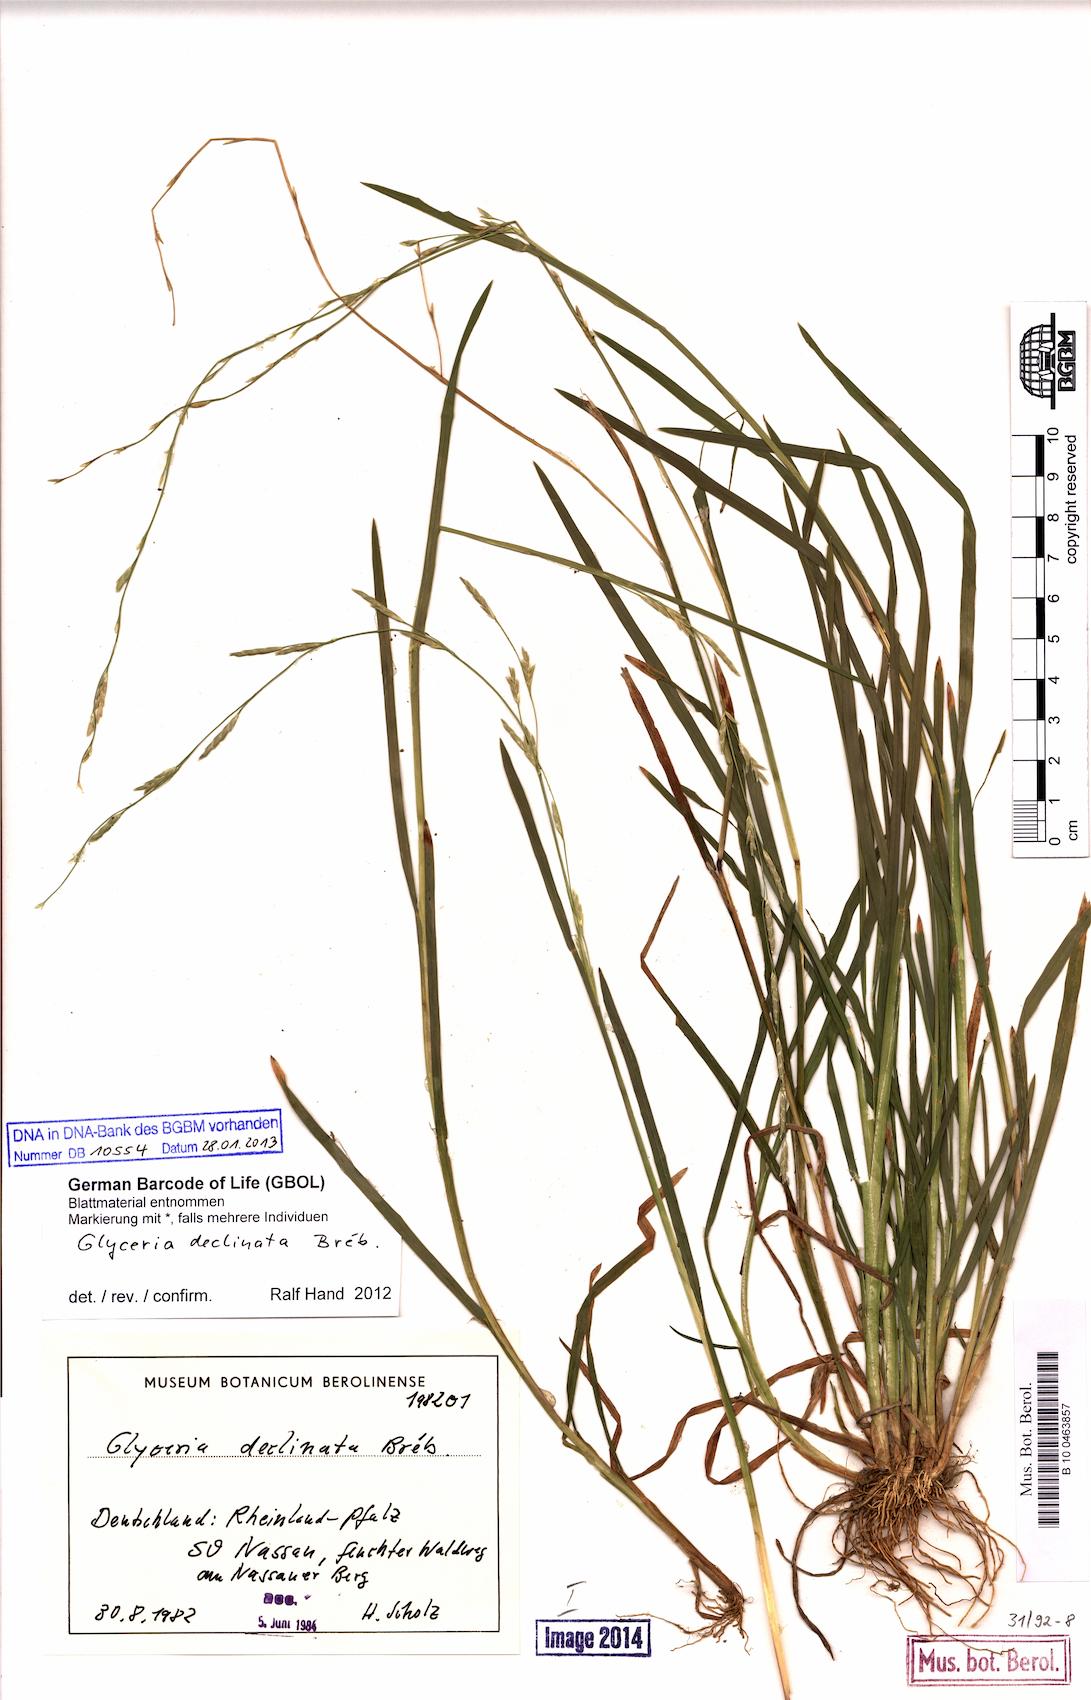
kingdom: Plantae
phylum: Tracheophyta
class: Liliopsida
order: Poales
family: Poaceae
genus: Glyceria
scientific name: Glyceria declinata
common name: Small sweet-grass
